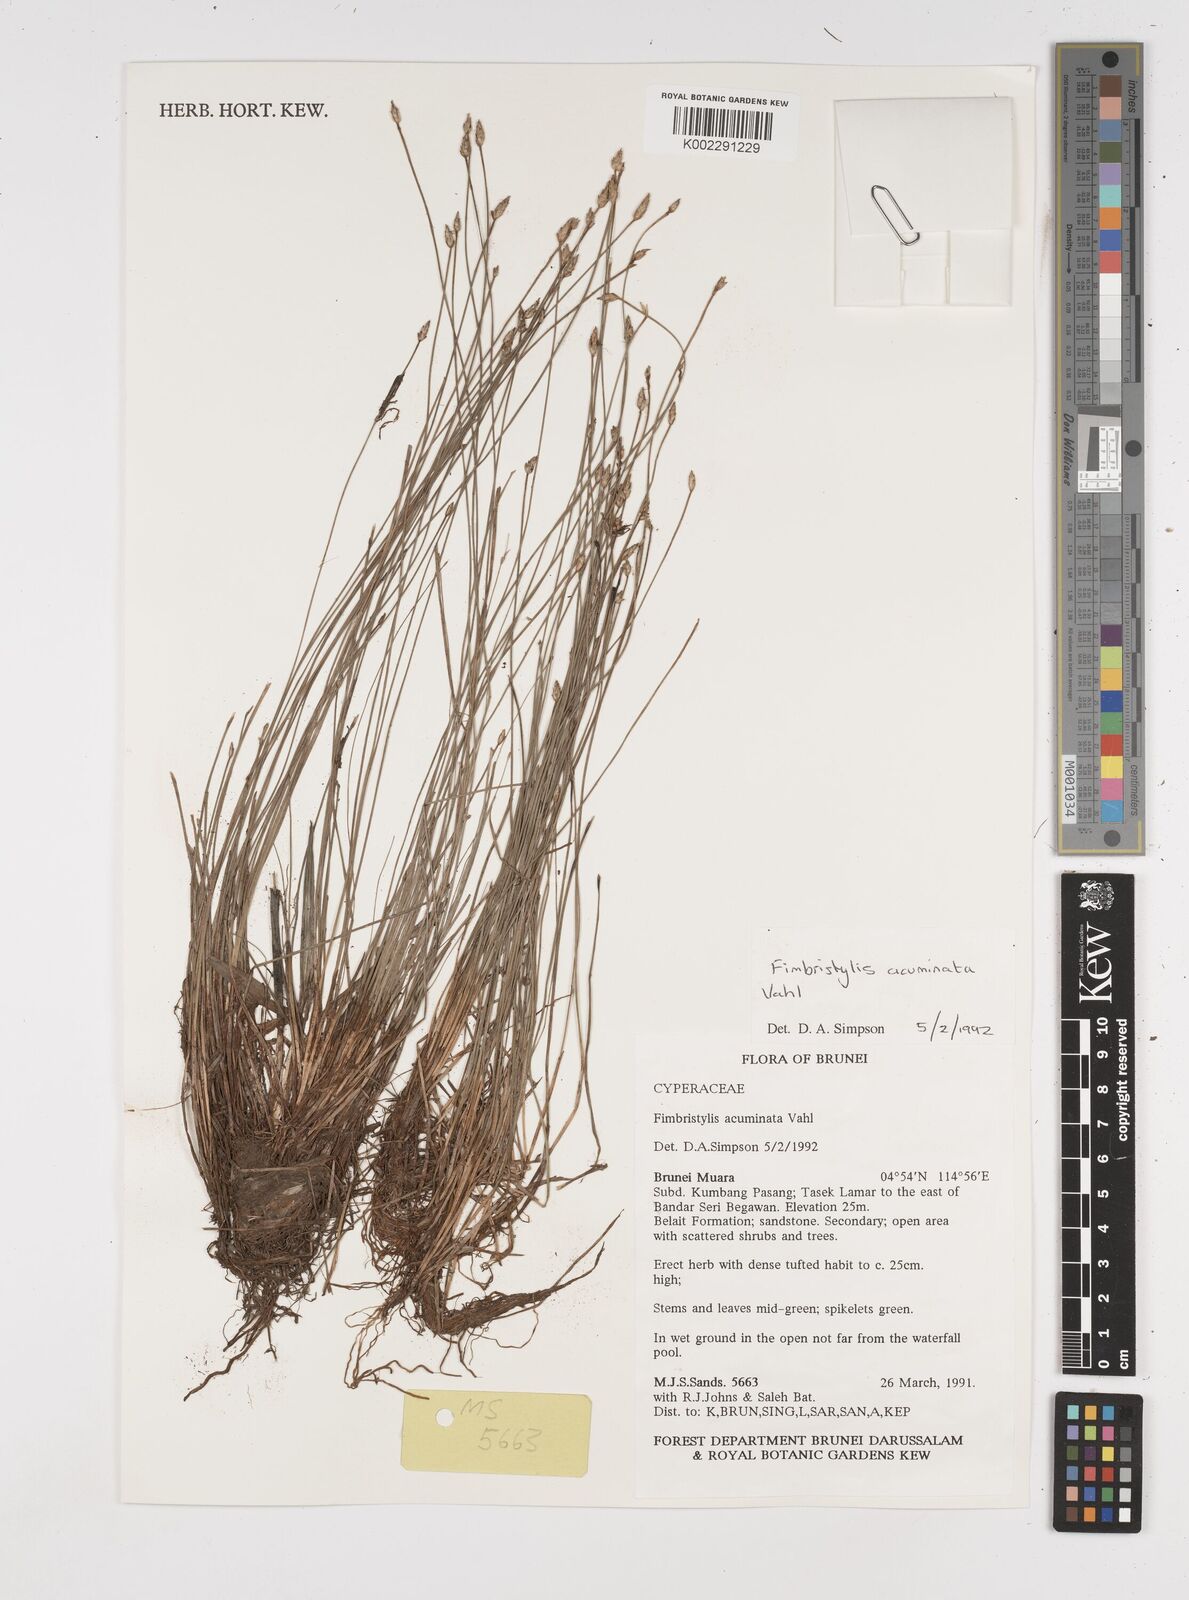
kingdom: Plantae
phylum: Tracheophyta
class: Liliopsida
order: Poales
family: Cyperaceae
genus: Fimbristylis
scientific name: Fimbristylis acuminata
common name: Pointed fimbristylis
